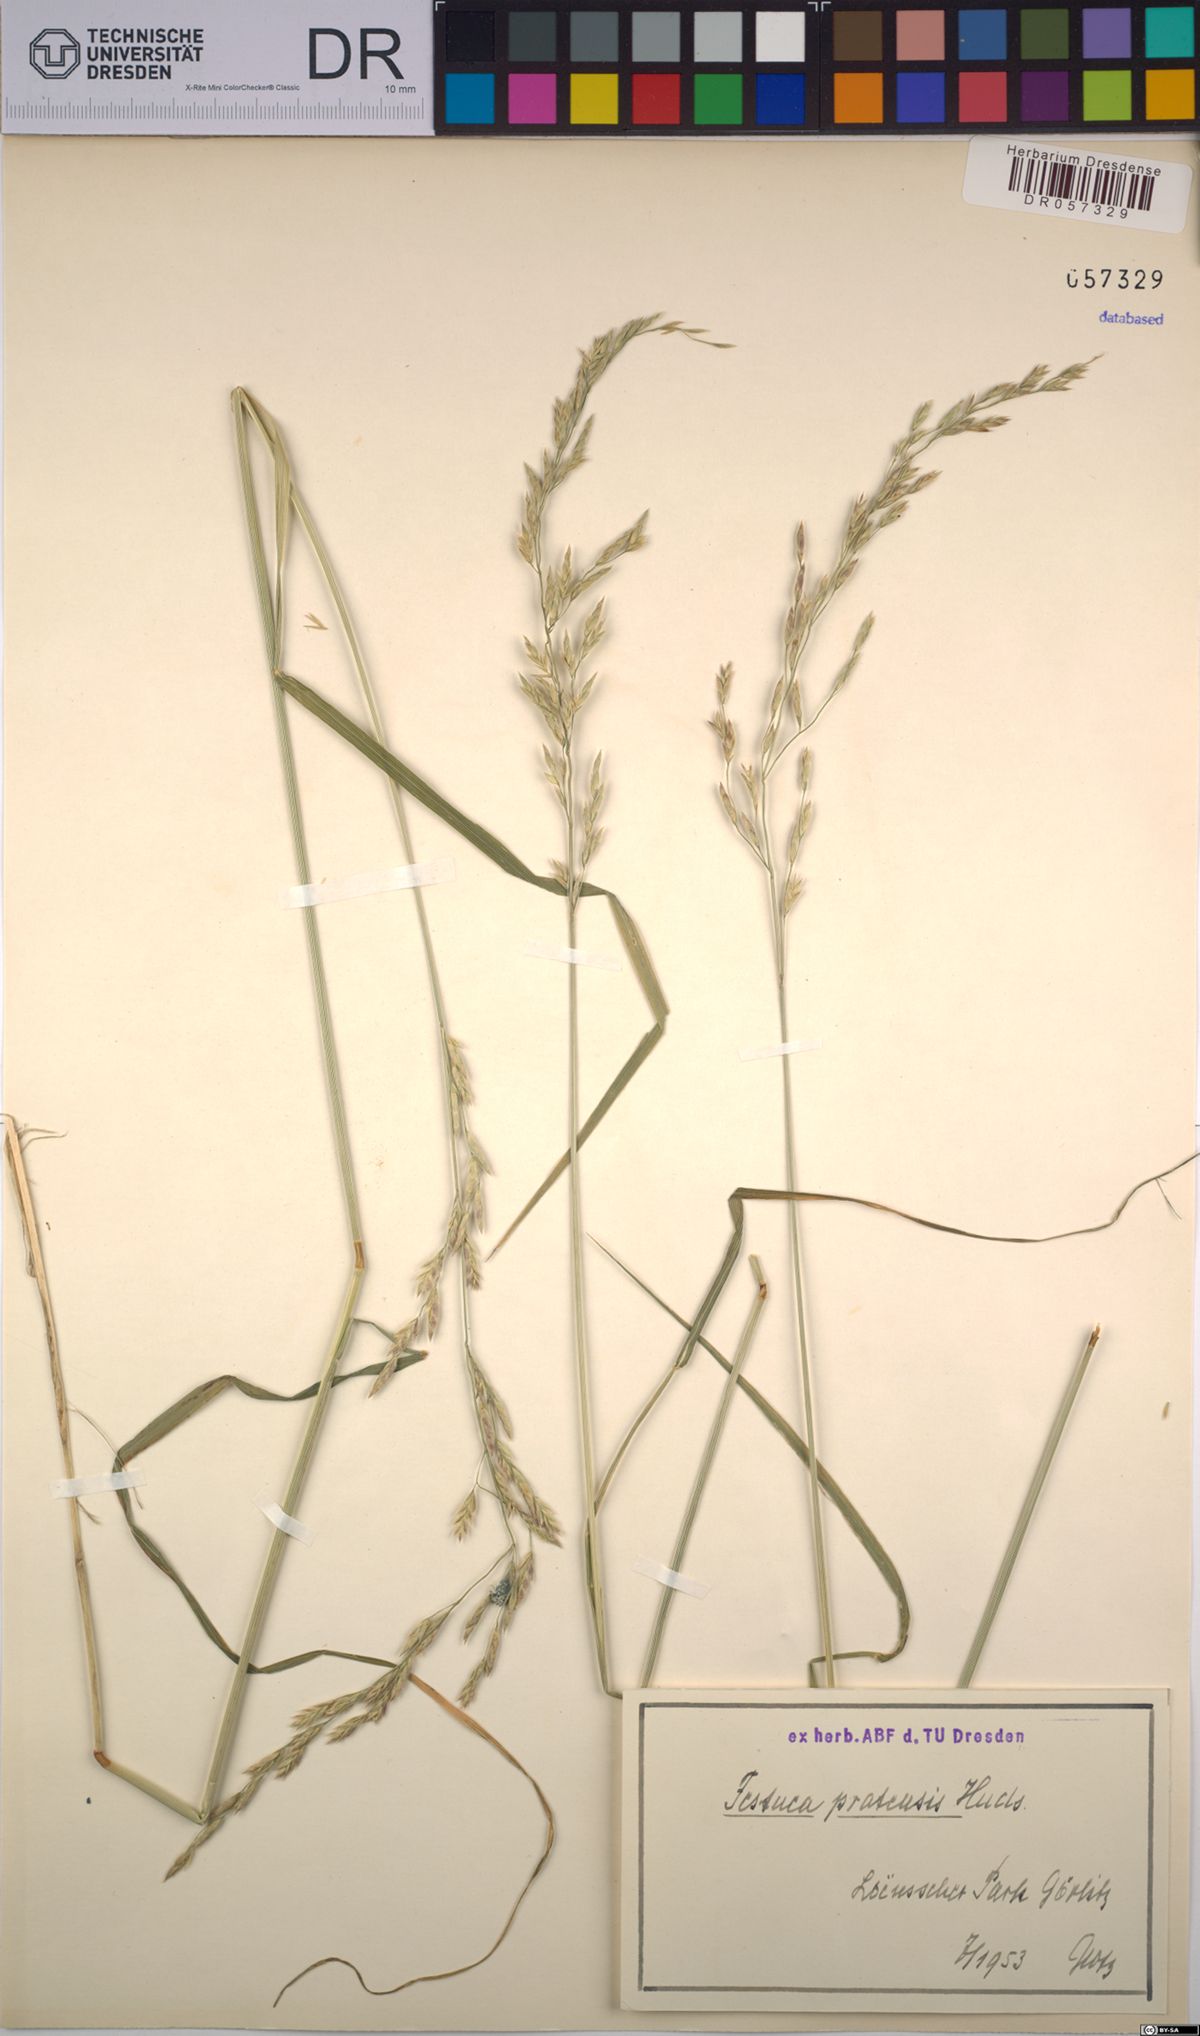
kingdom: Plantae
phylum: Tracheophyta
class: Liliopsida
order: Poales
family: Poaceae
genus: Lolium
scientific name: Lolium pratense
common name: Dover grass
